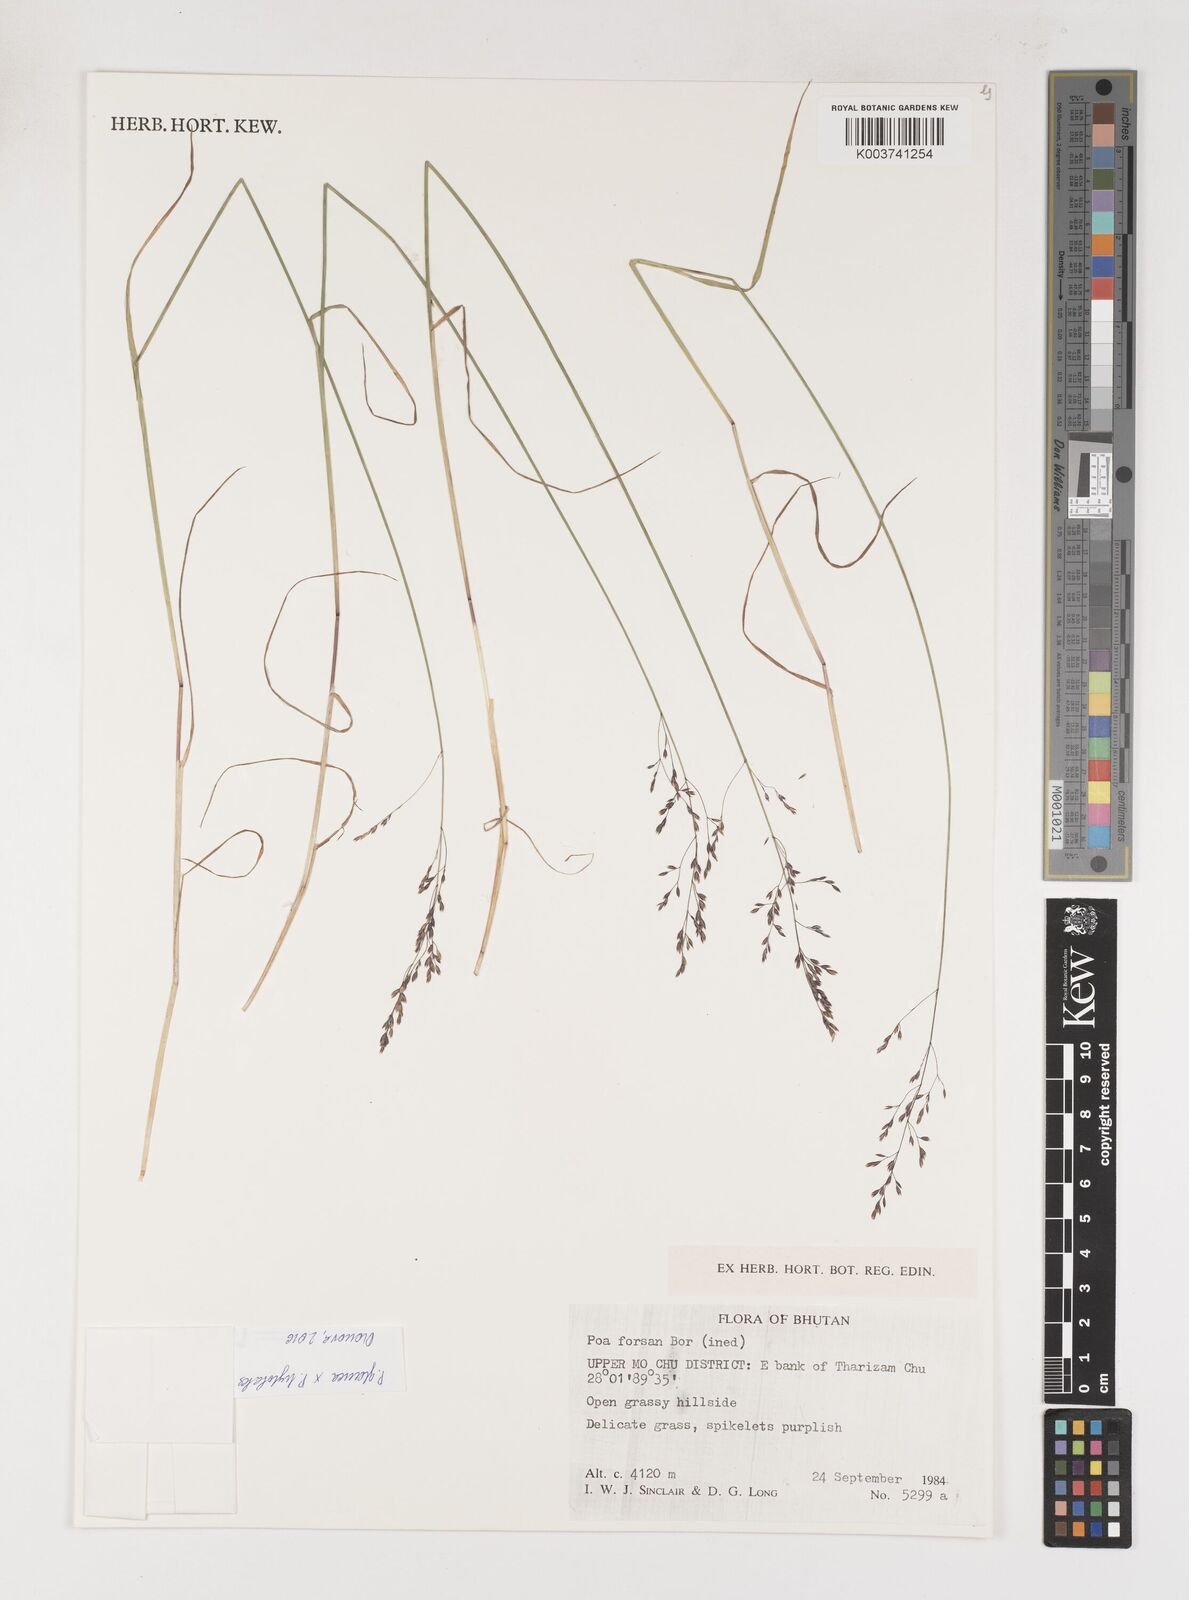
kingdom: Plantae
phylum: Tracheophyta
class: Liliopsida
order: Poales
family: Poaceae
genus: Poa
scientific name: Poa
